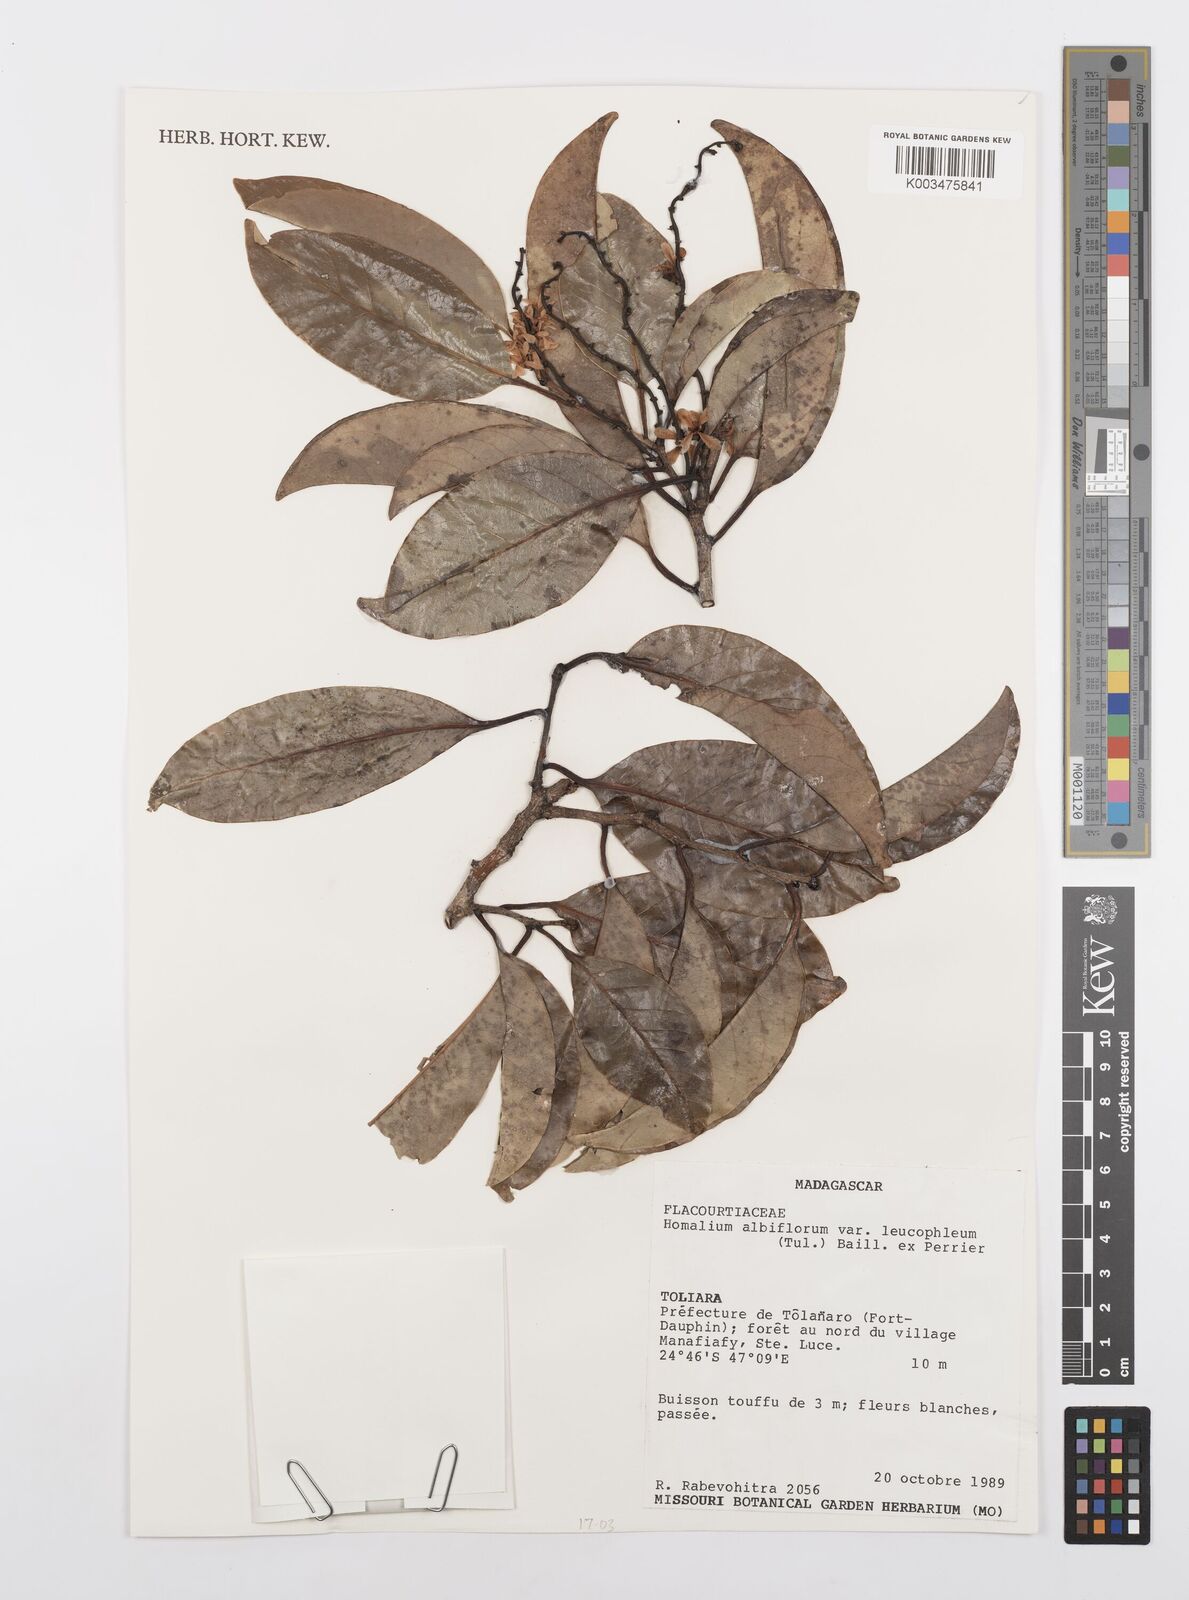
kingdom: Plantae
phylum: Tracheophyta
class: Magnoliopsida
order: Malpighiales
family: Salicaceae
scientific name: Salicaceae
